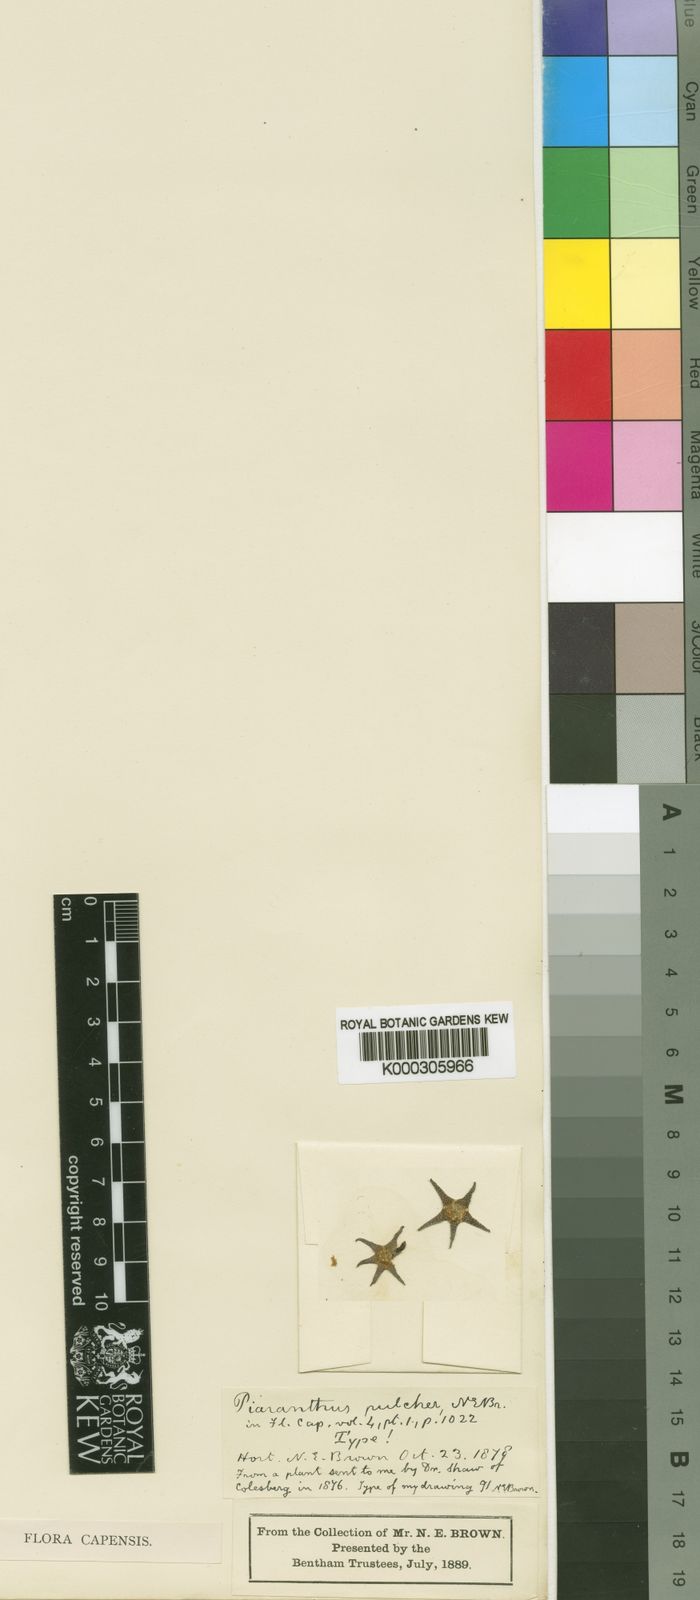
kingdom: Plantae
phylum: Tracheophyta
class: Magnoliopsida
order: Gentianales
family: Apocynaceae
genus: Ceropegia
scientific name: Ceropegia cornuta
